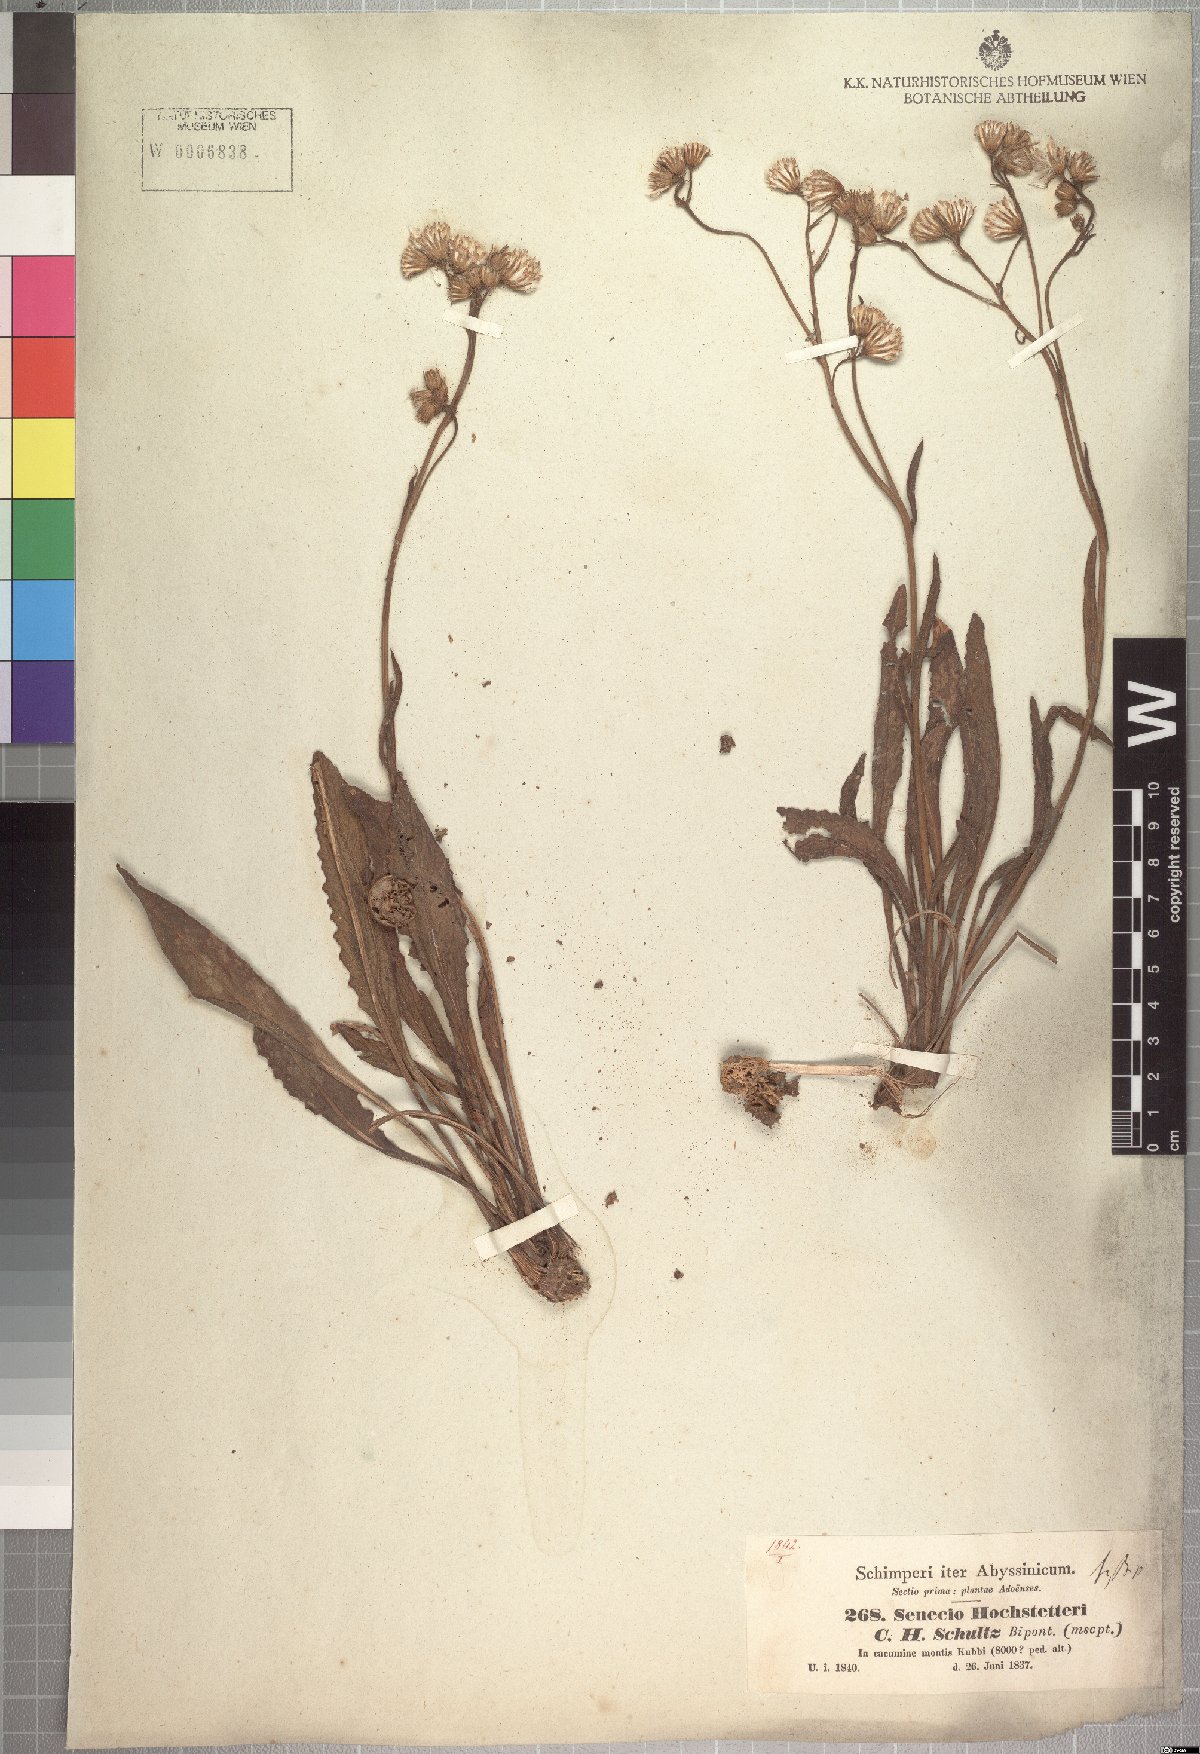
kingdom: Plantae
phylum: Tracheophyta
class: Magnoliopsida
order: Asterales
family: Asteraceae
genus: Senecio
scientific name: Senecio hochstetteri
